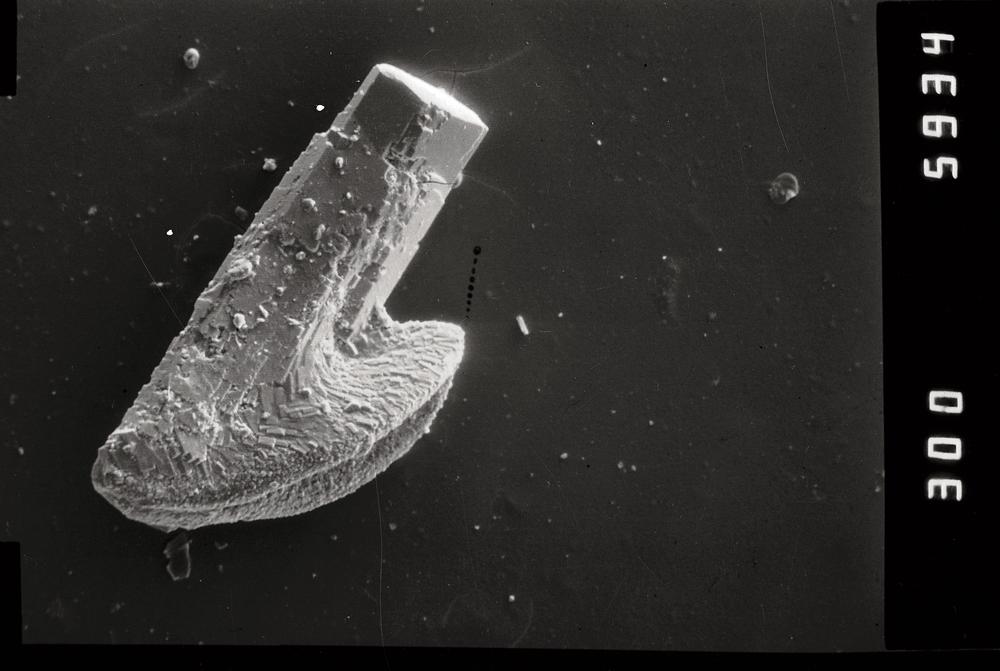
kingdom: Animalia
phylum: Chordata
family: Drepanoistodontidae
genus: Drepanoistodus
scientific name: Drepanoistodus
